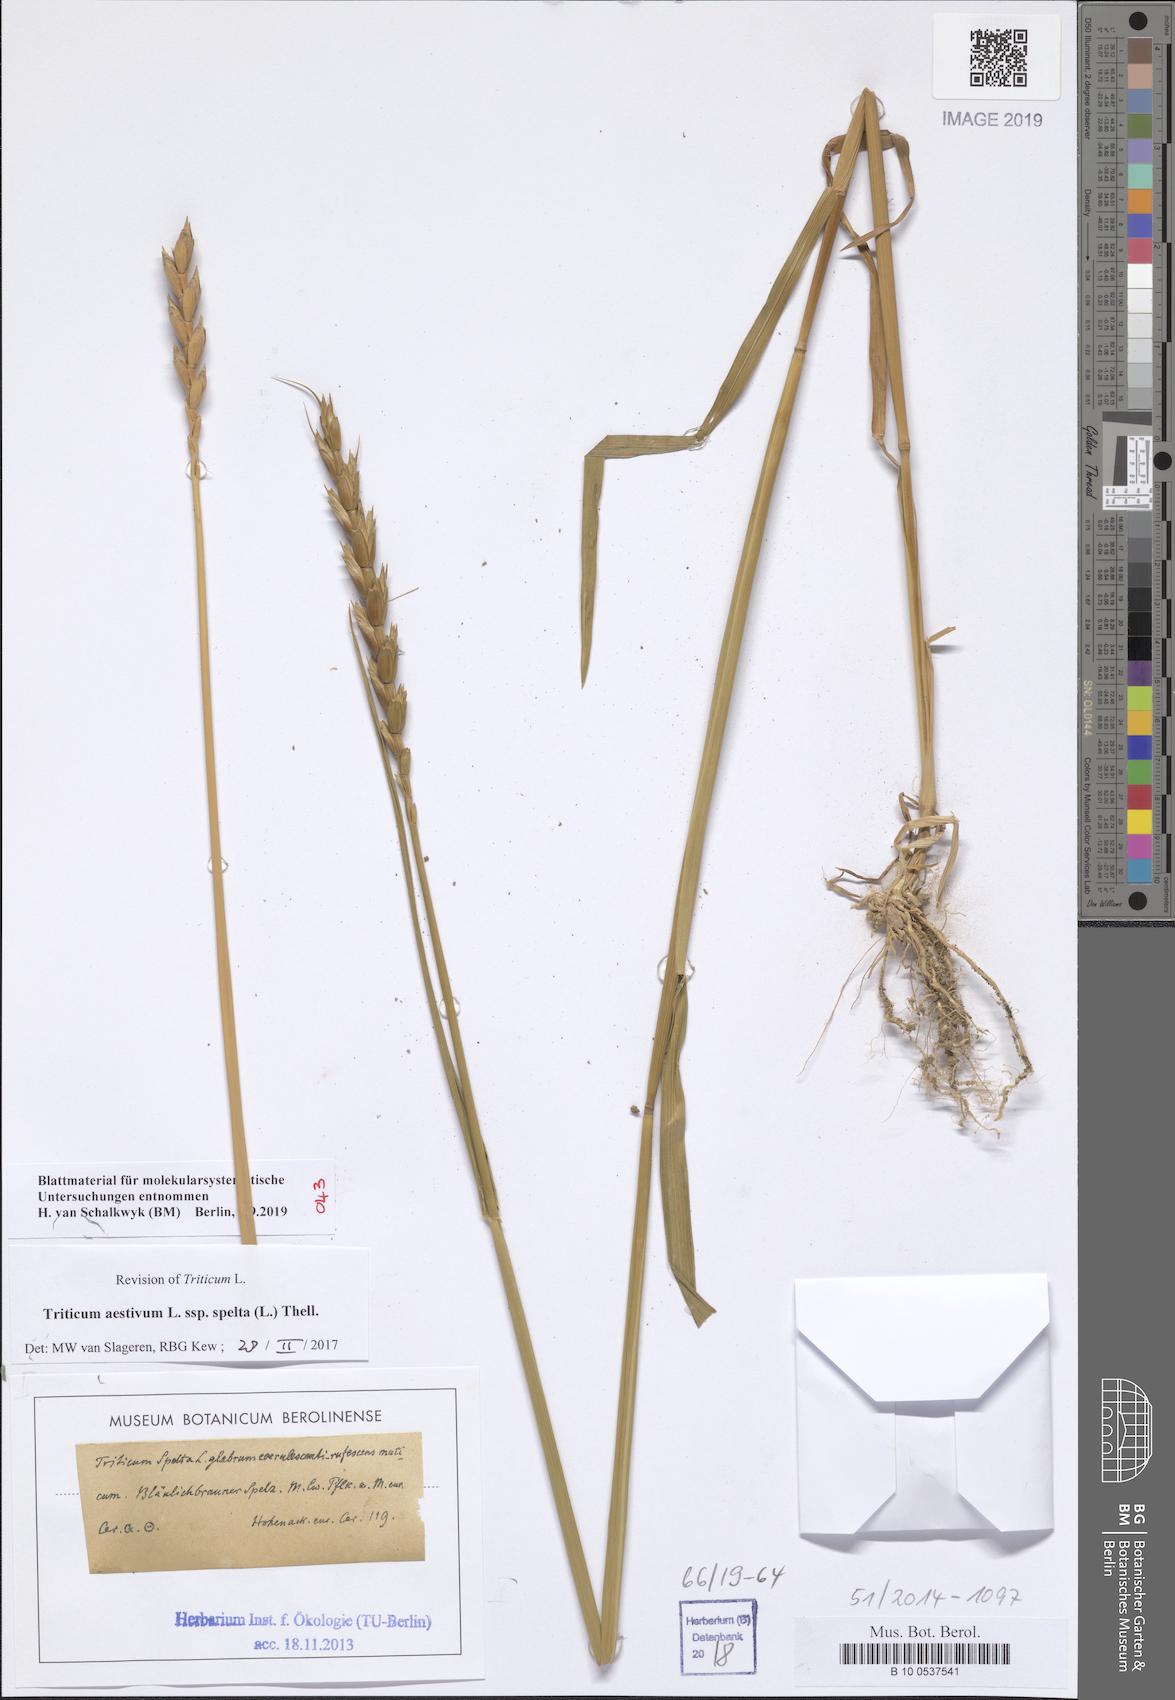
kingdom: Plantae
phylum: Tracheophyta
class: Liliopsida
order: Poales
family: Poaceae
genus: Triticum
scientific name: Triticum aestivum
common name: Common wheat
